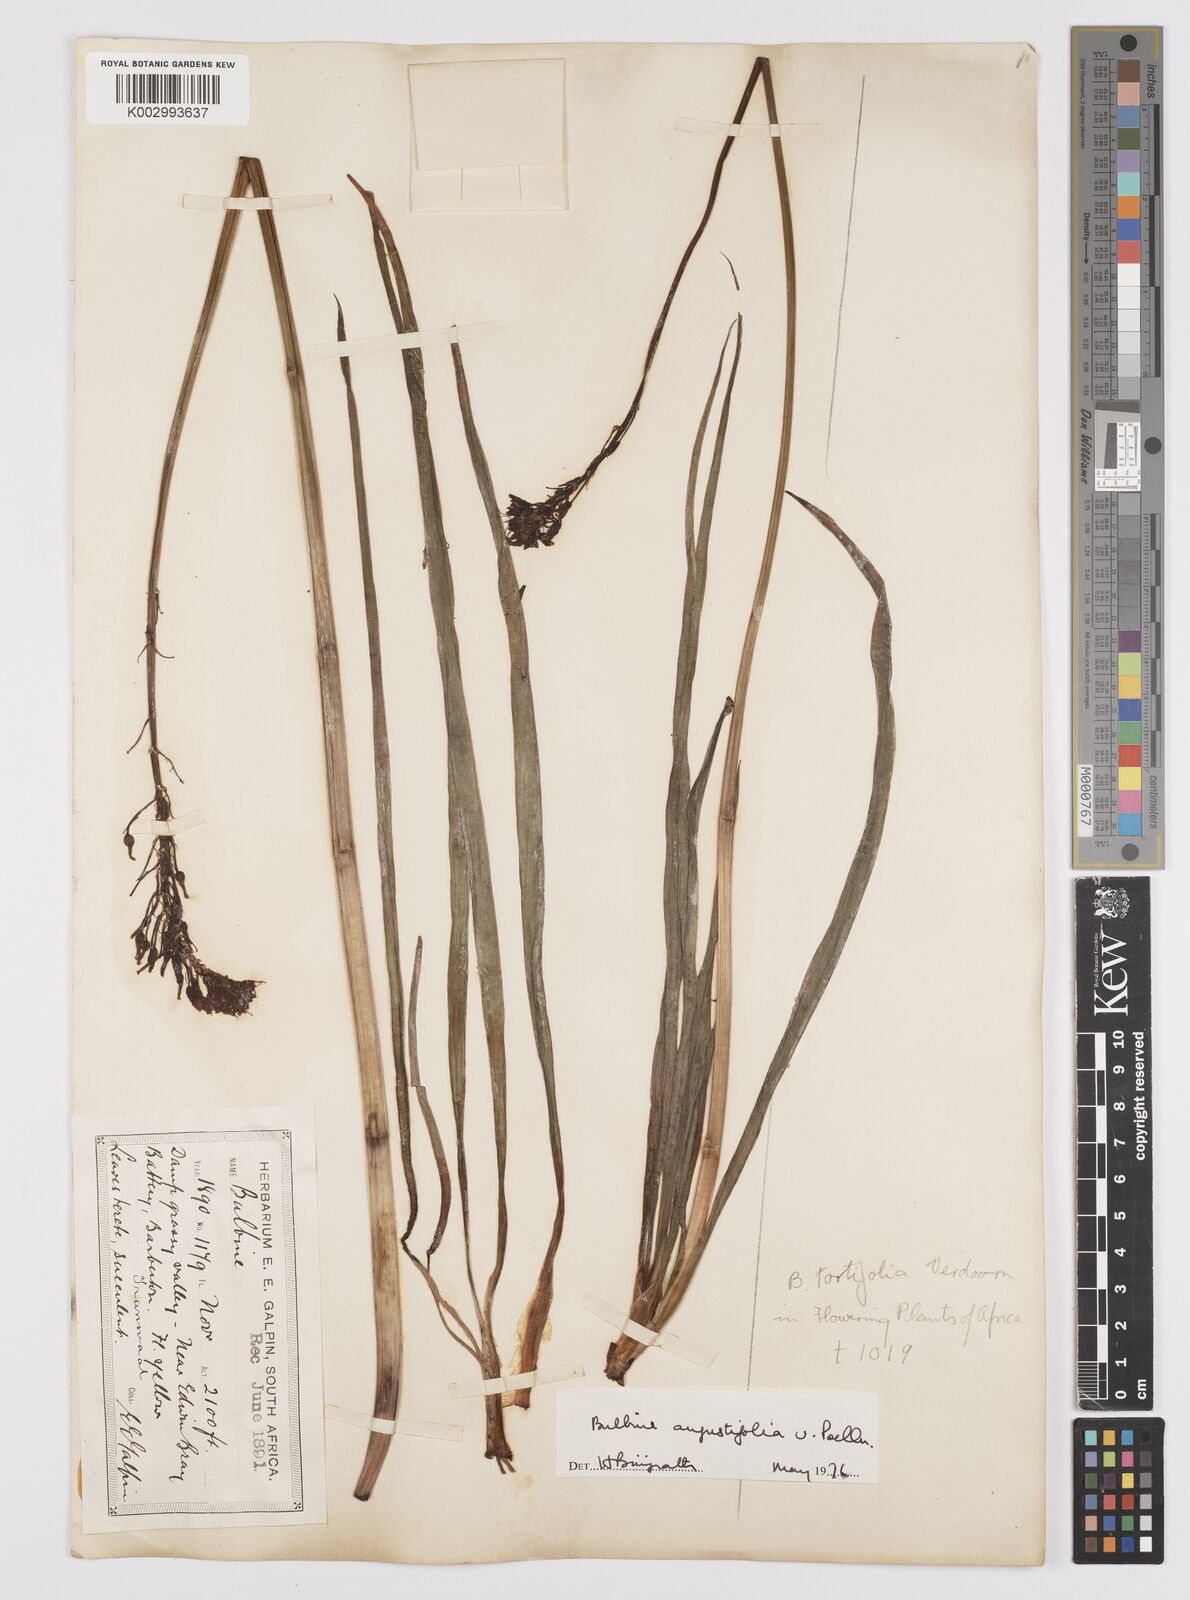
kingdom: Plantae
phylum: Tracheophyta
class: Liliopsida
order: Asparagales
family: Asphodelaceae
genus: Bulbine
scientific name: Bulbine angustifolia
